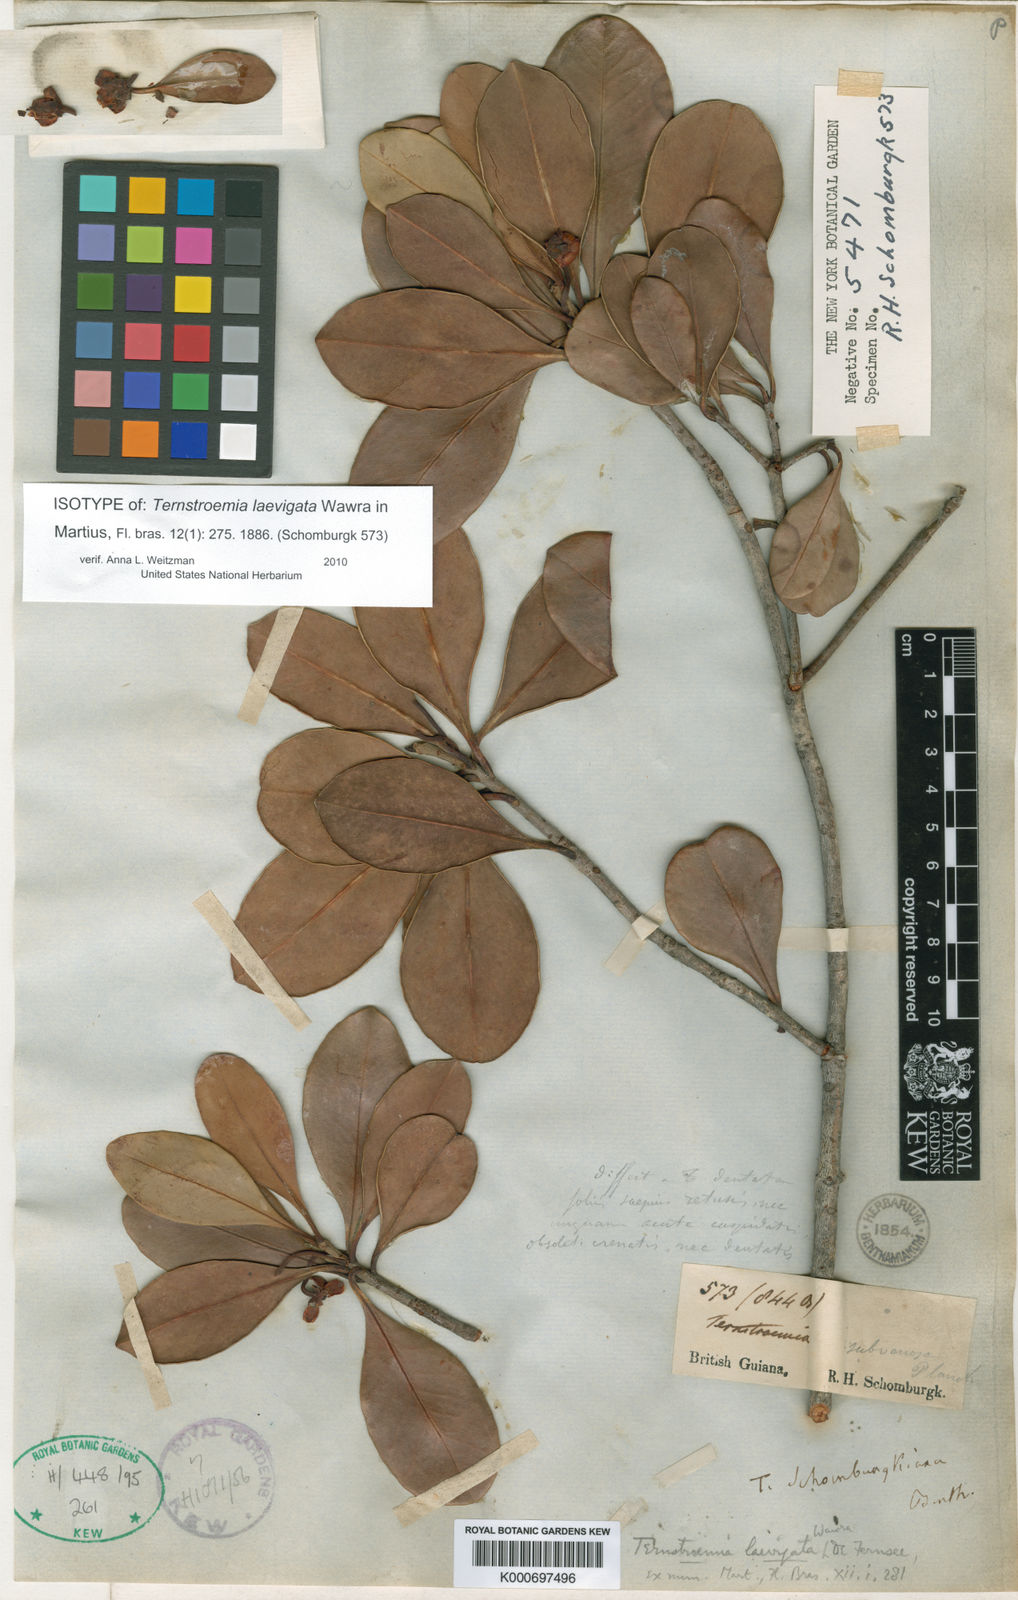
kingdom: Plantae
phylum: Tracheophyta
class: Magnoliopsida
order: Ericales
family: Pentaphylacaceae
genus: Ternstroemia
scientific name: Ternstroemia laevigata
